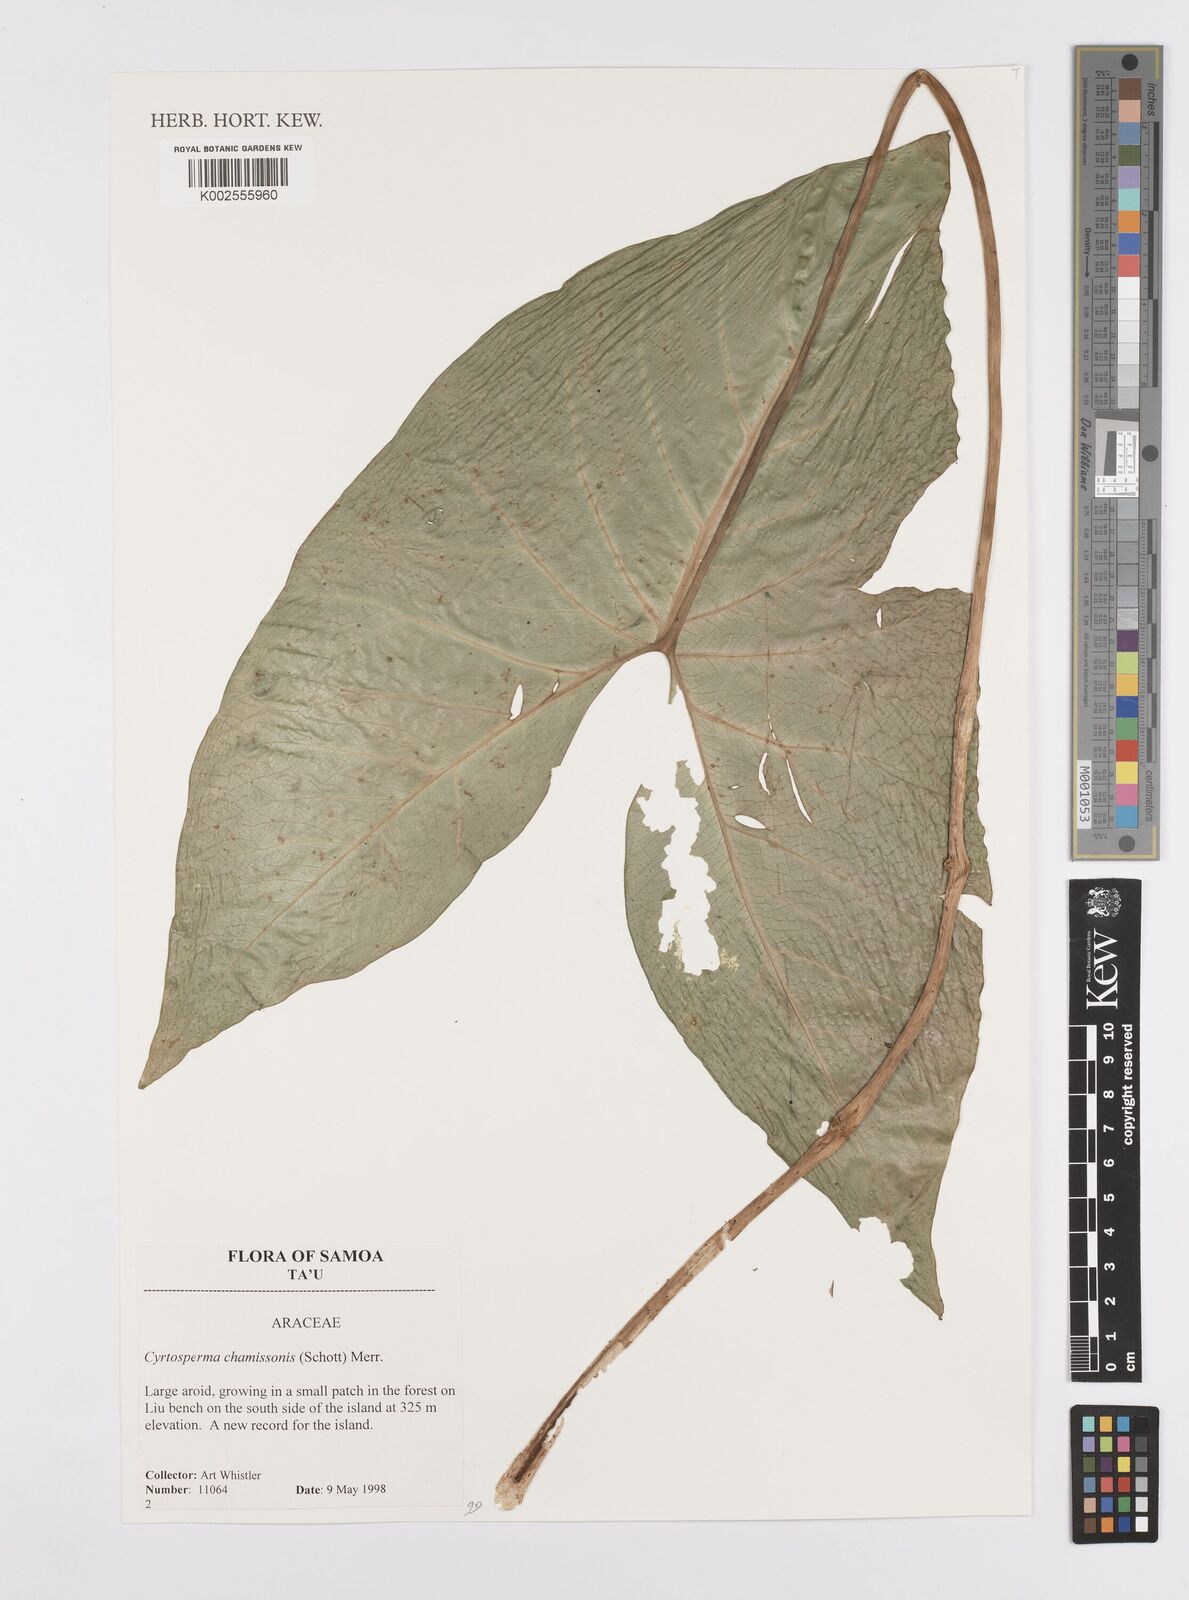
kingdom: Plantae
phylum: Tracheophyta
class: Liliopsida
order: Alismatales
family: Araceae
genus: Cyrtosperma
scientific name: Cyrtosperma merkusii
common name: Giant swamp-taro
